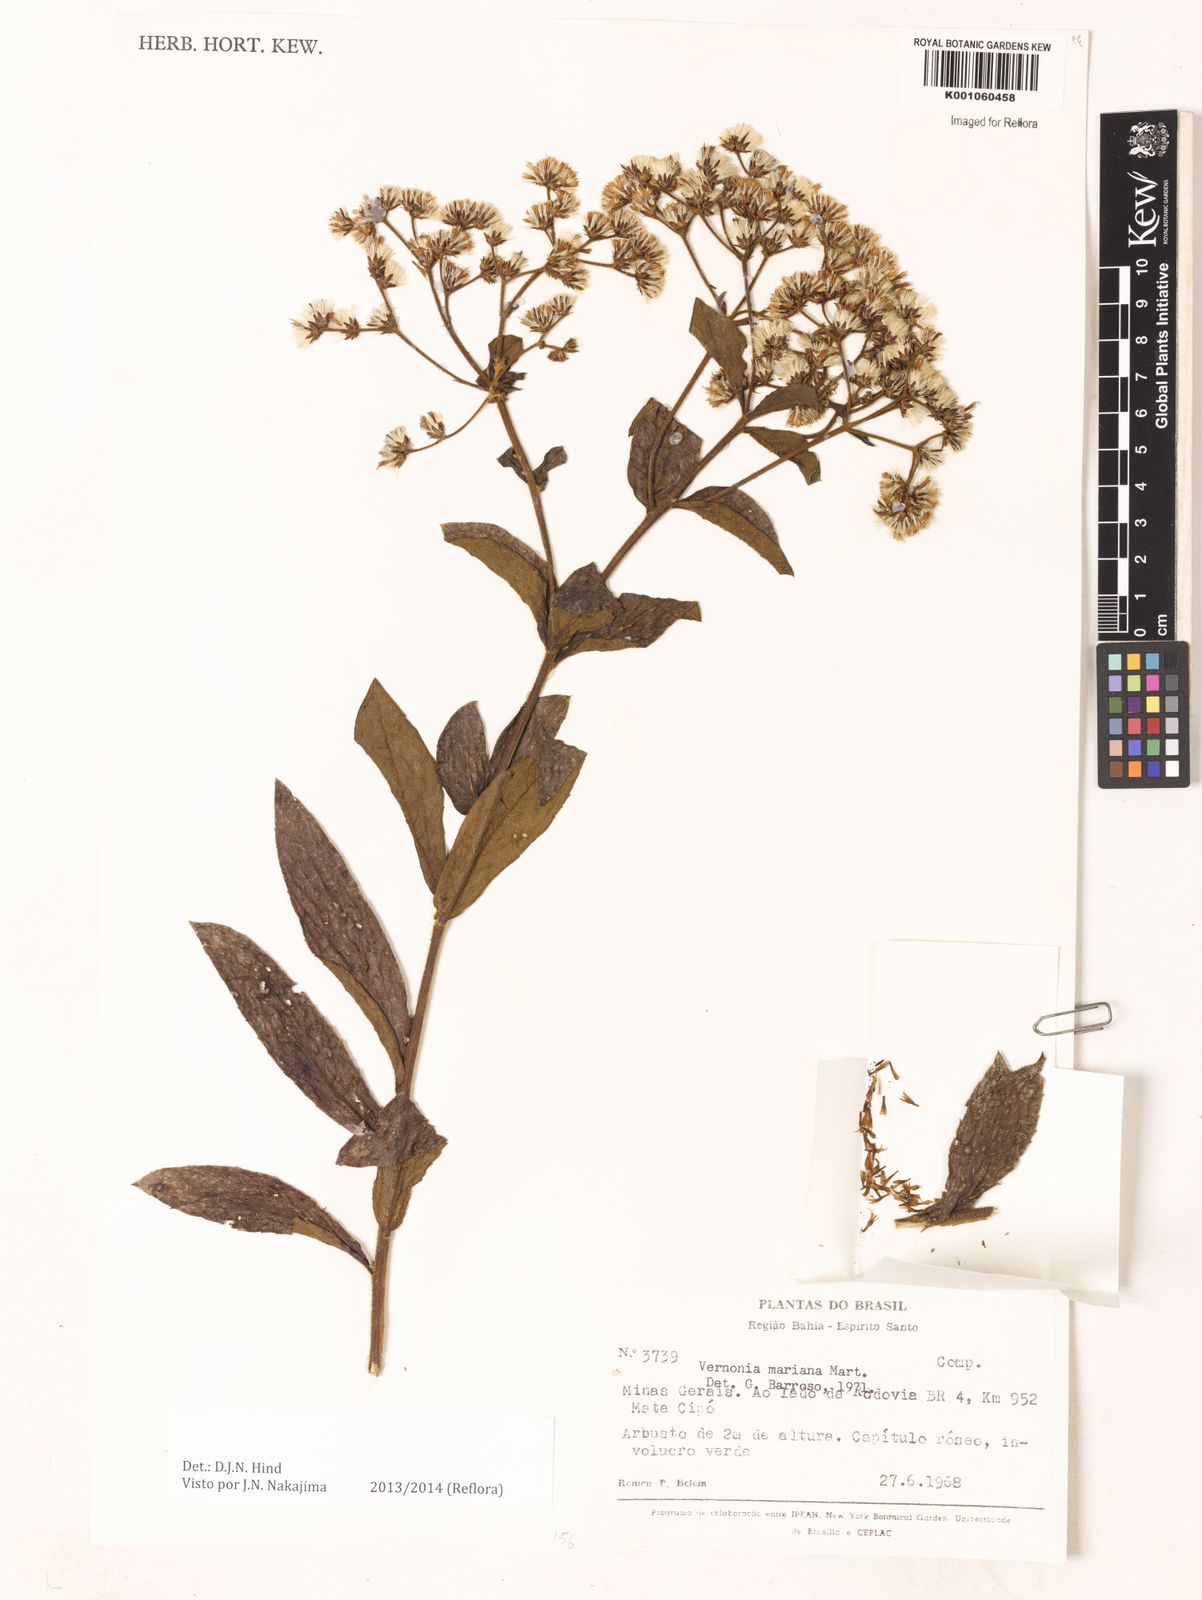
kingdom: Plantae
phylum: Tracheophyta
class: Magnoliopsida
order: Asterales
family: Asteraceae
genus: Vernonanthura
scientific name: Vernonanthura cymosa
